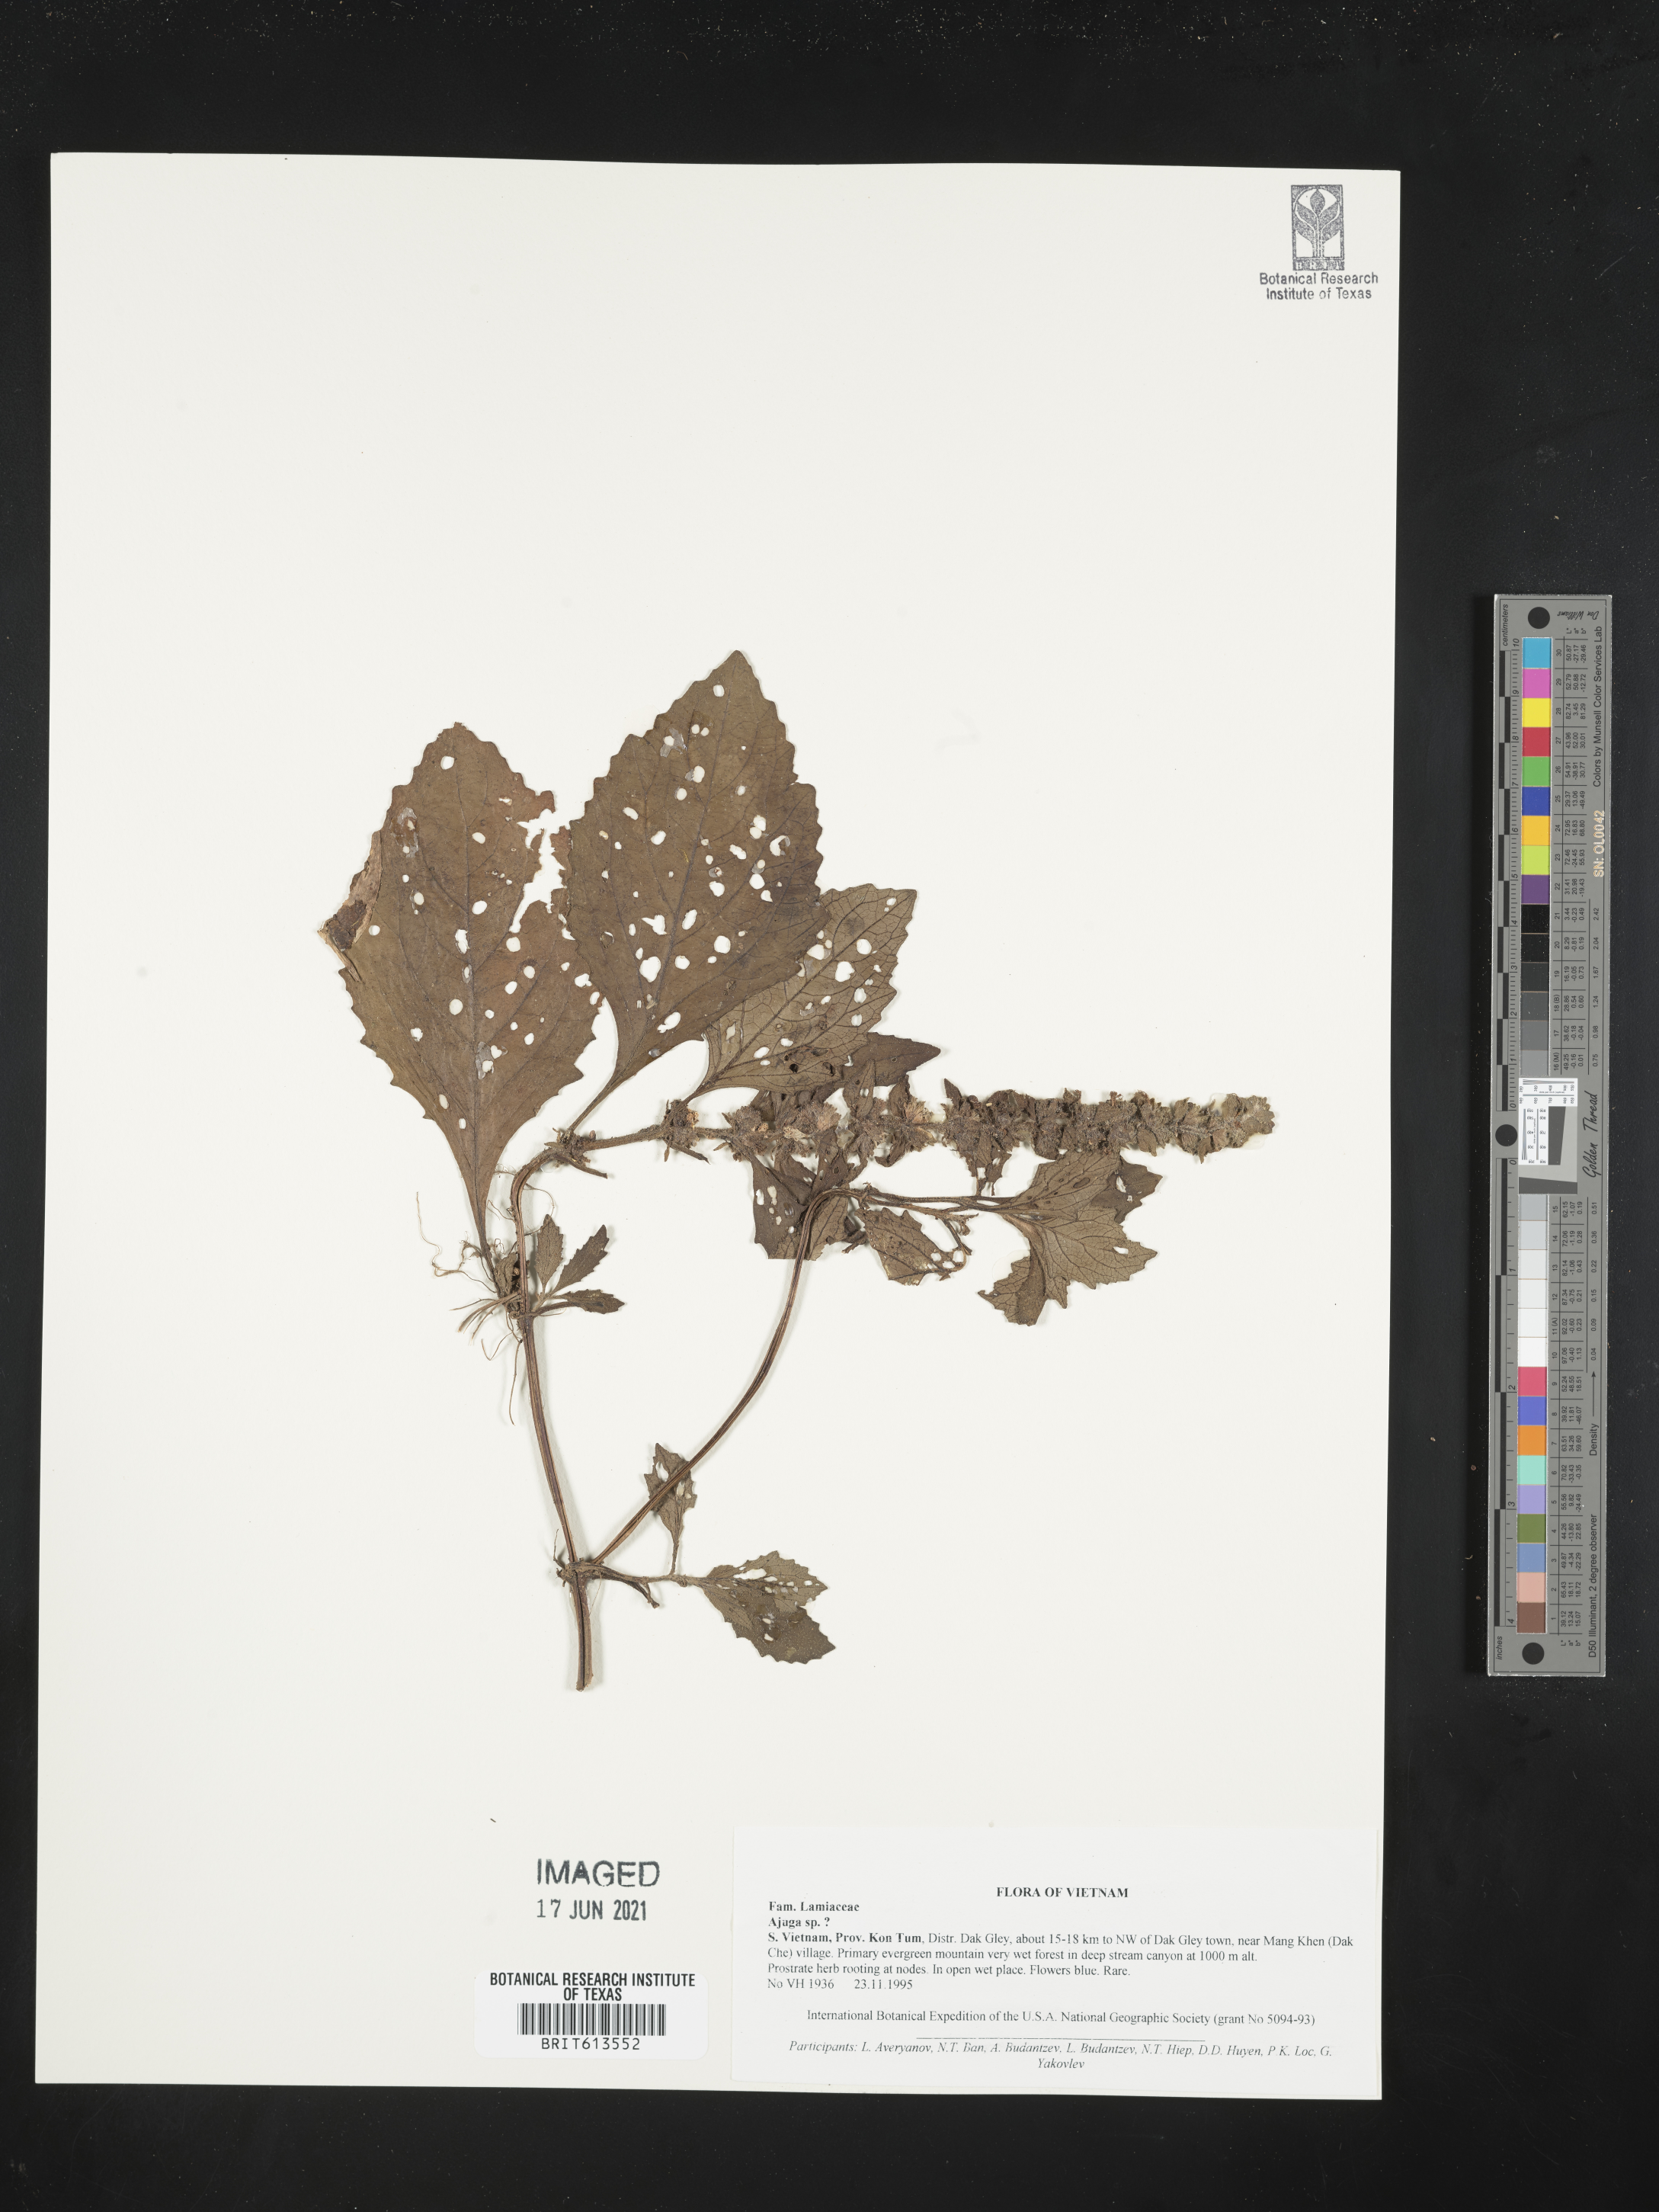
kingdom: Plantae
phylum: Tracheophyta
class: Magnoliopsida
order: Lamiales
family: Lamiaceae
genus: Ajuga
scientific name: Ajuga
